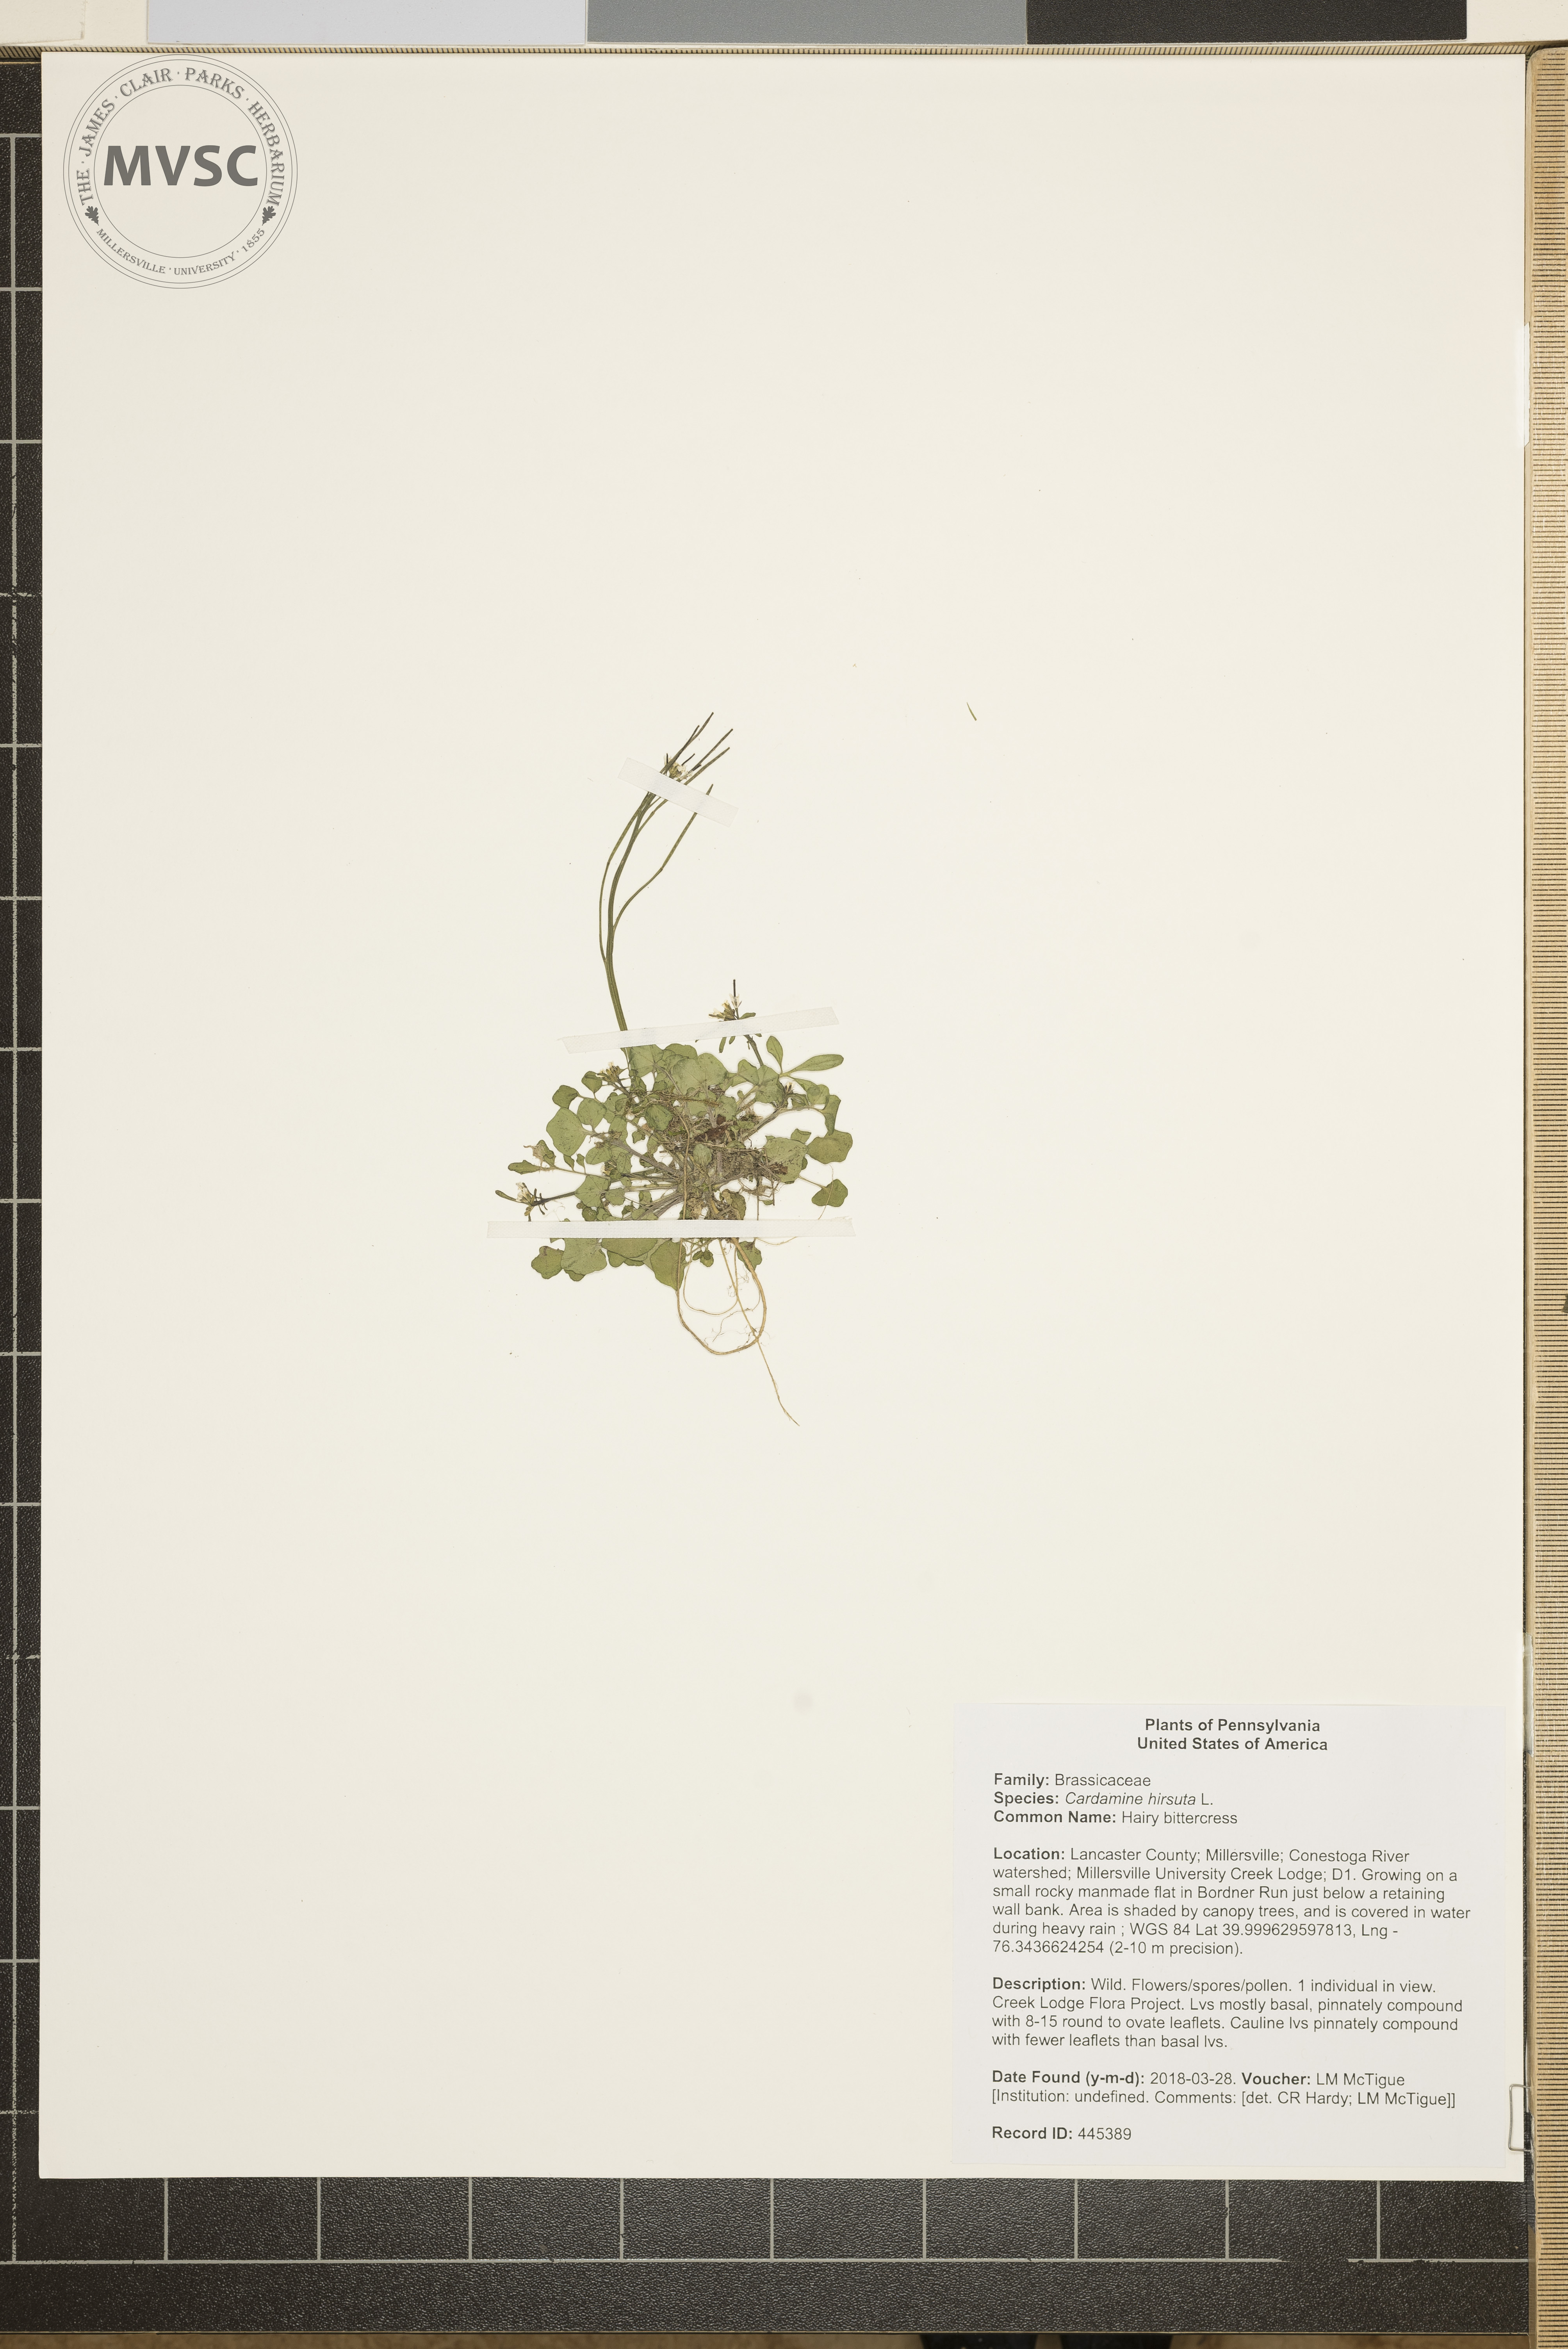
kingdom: Plantae
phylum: Tracheophyta
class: Magnoliopsida
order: Brassicales
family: Brassicaceae
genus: Cardamine
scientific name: Cardamine hirsuta
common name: Hairy bittercress
